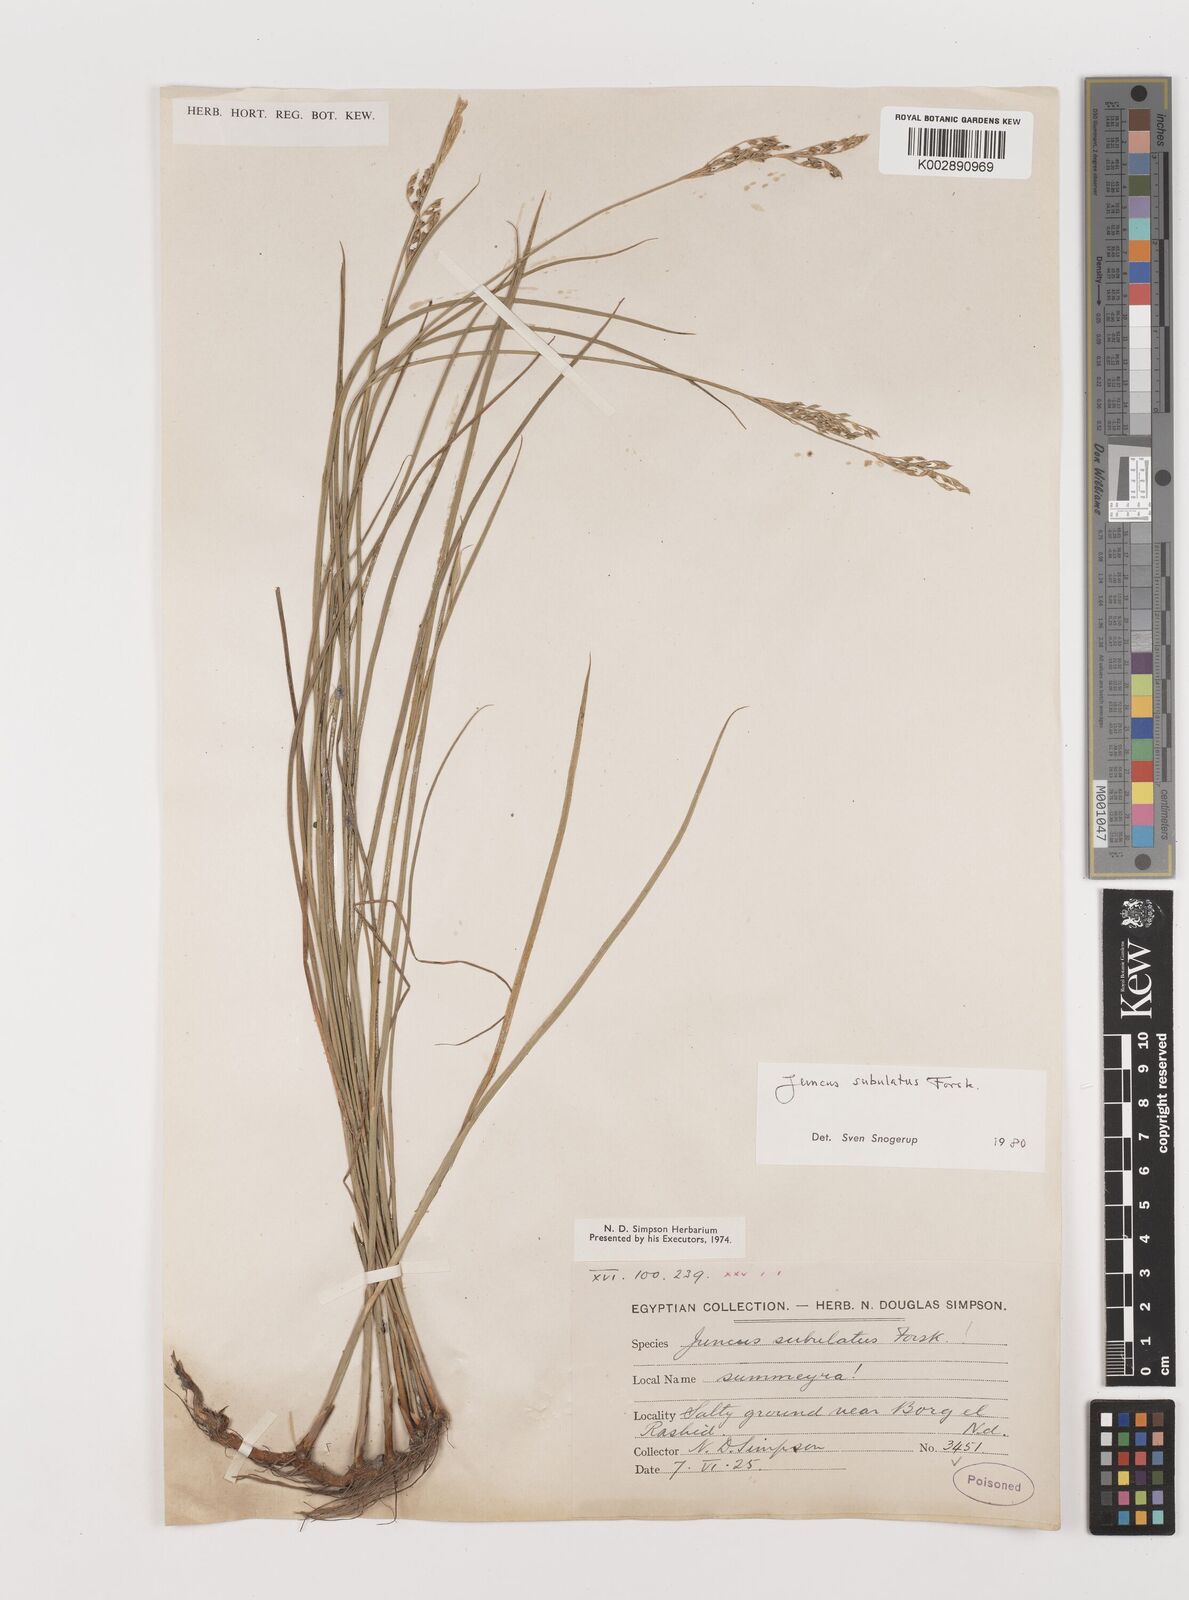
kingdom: Plantae
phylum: Tracheophyta
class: Liliopsida
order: Poales
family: Juncaceae
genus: Juncus
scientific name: Juncus subulatus
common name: Somerset rush
